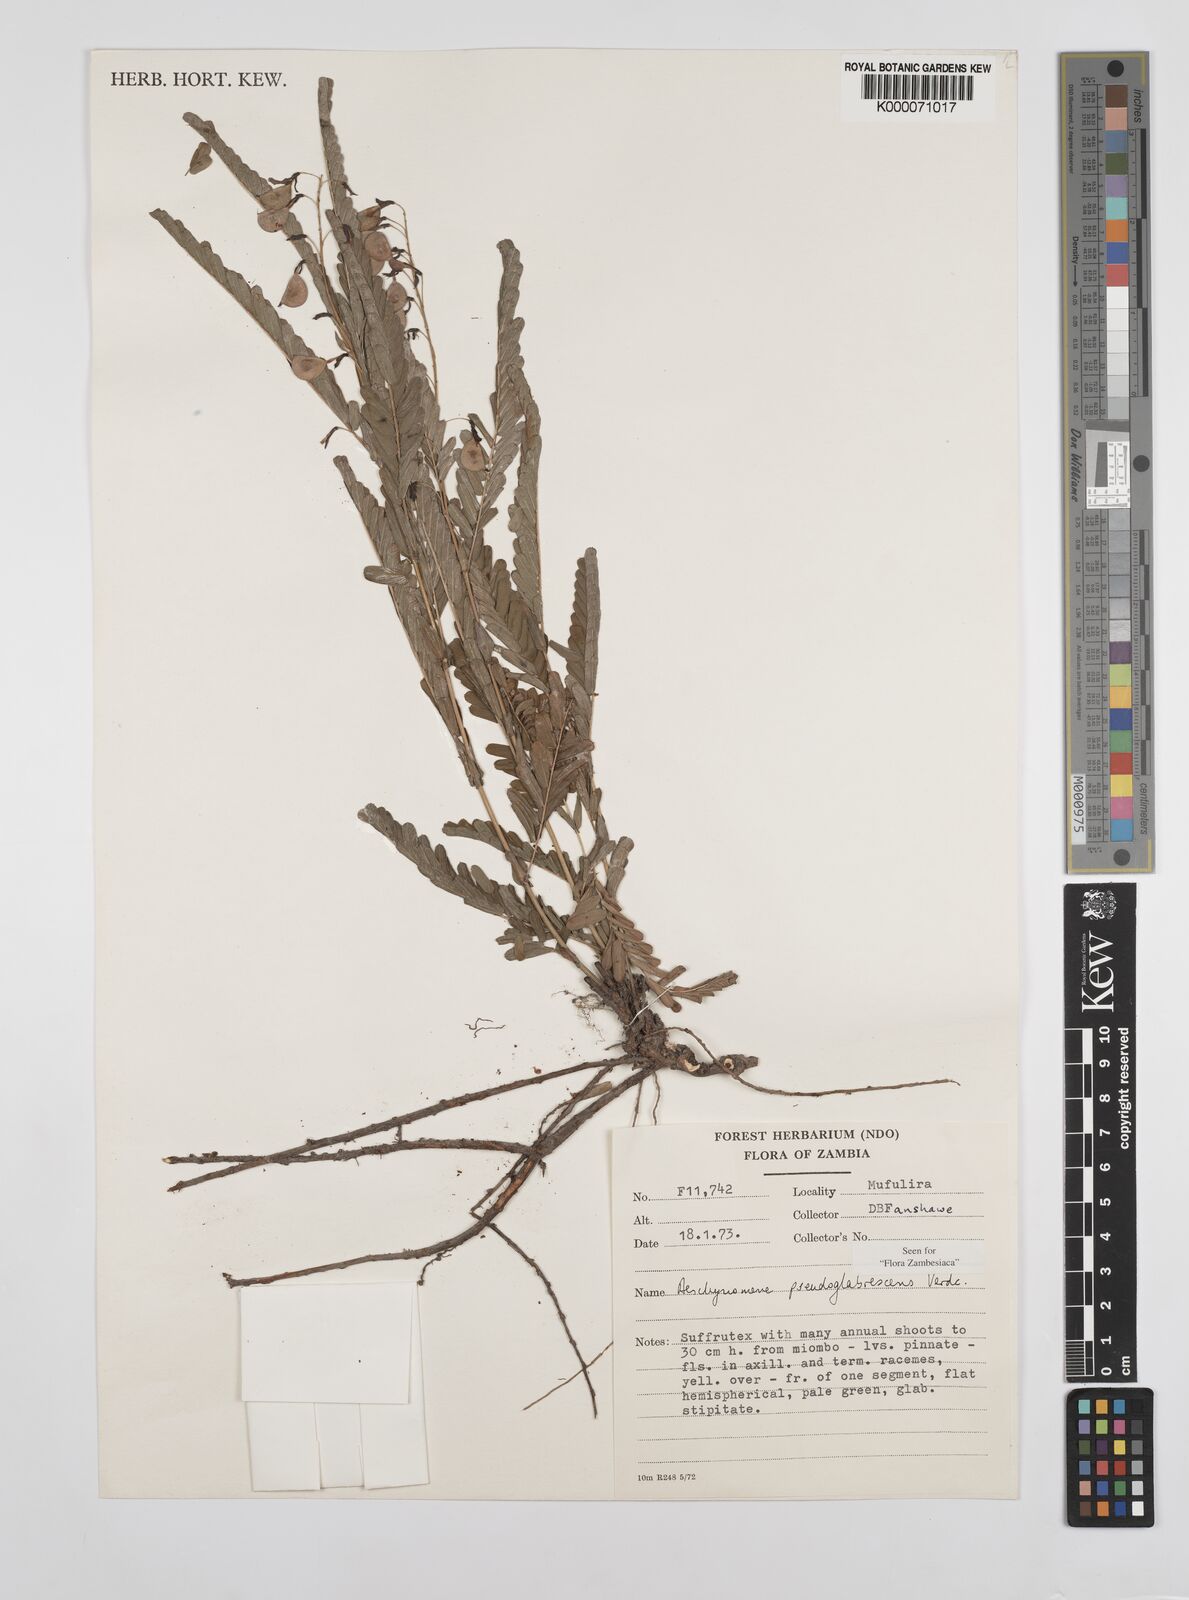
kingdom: Plantae
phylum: Tracheophyta
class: Magnoliopsida
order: Fabales
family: Fabaceae
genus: Aeschynomene
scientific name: Aeschynomene pseudoglabrescens
